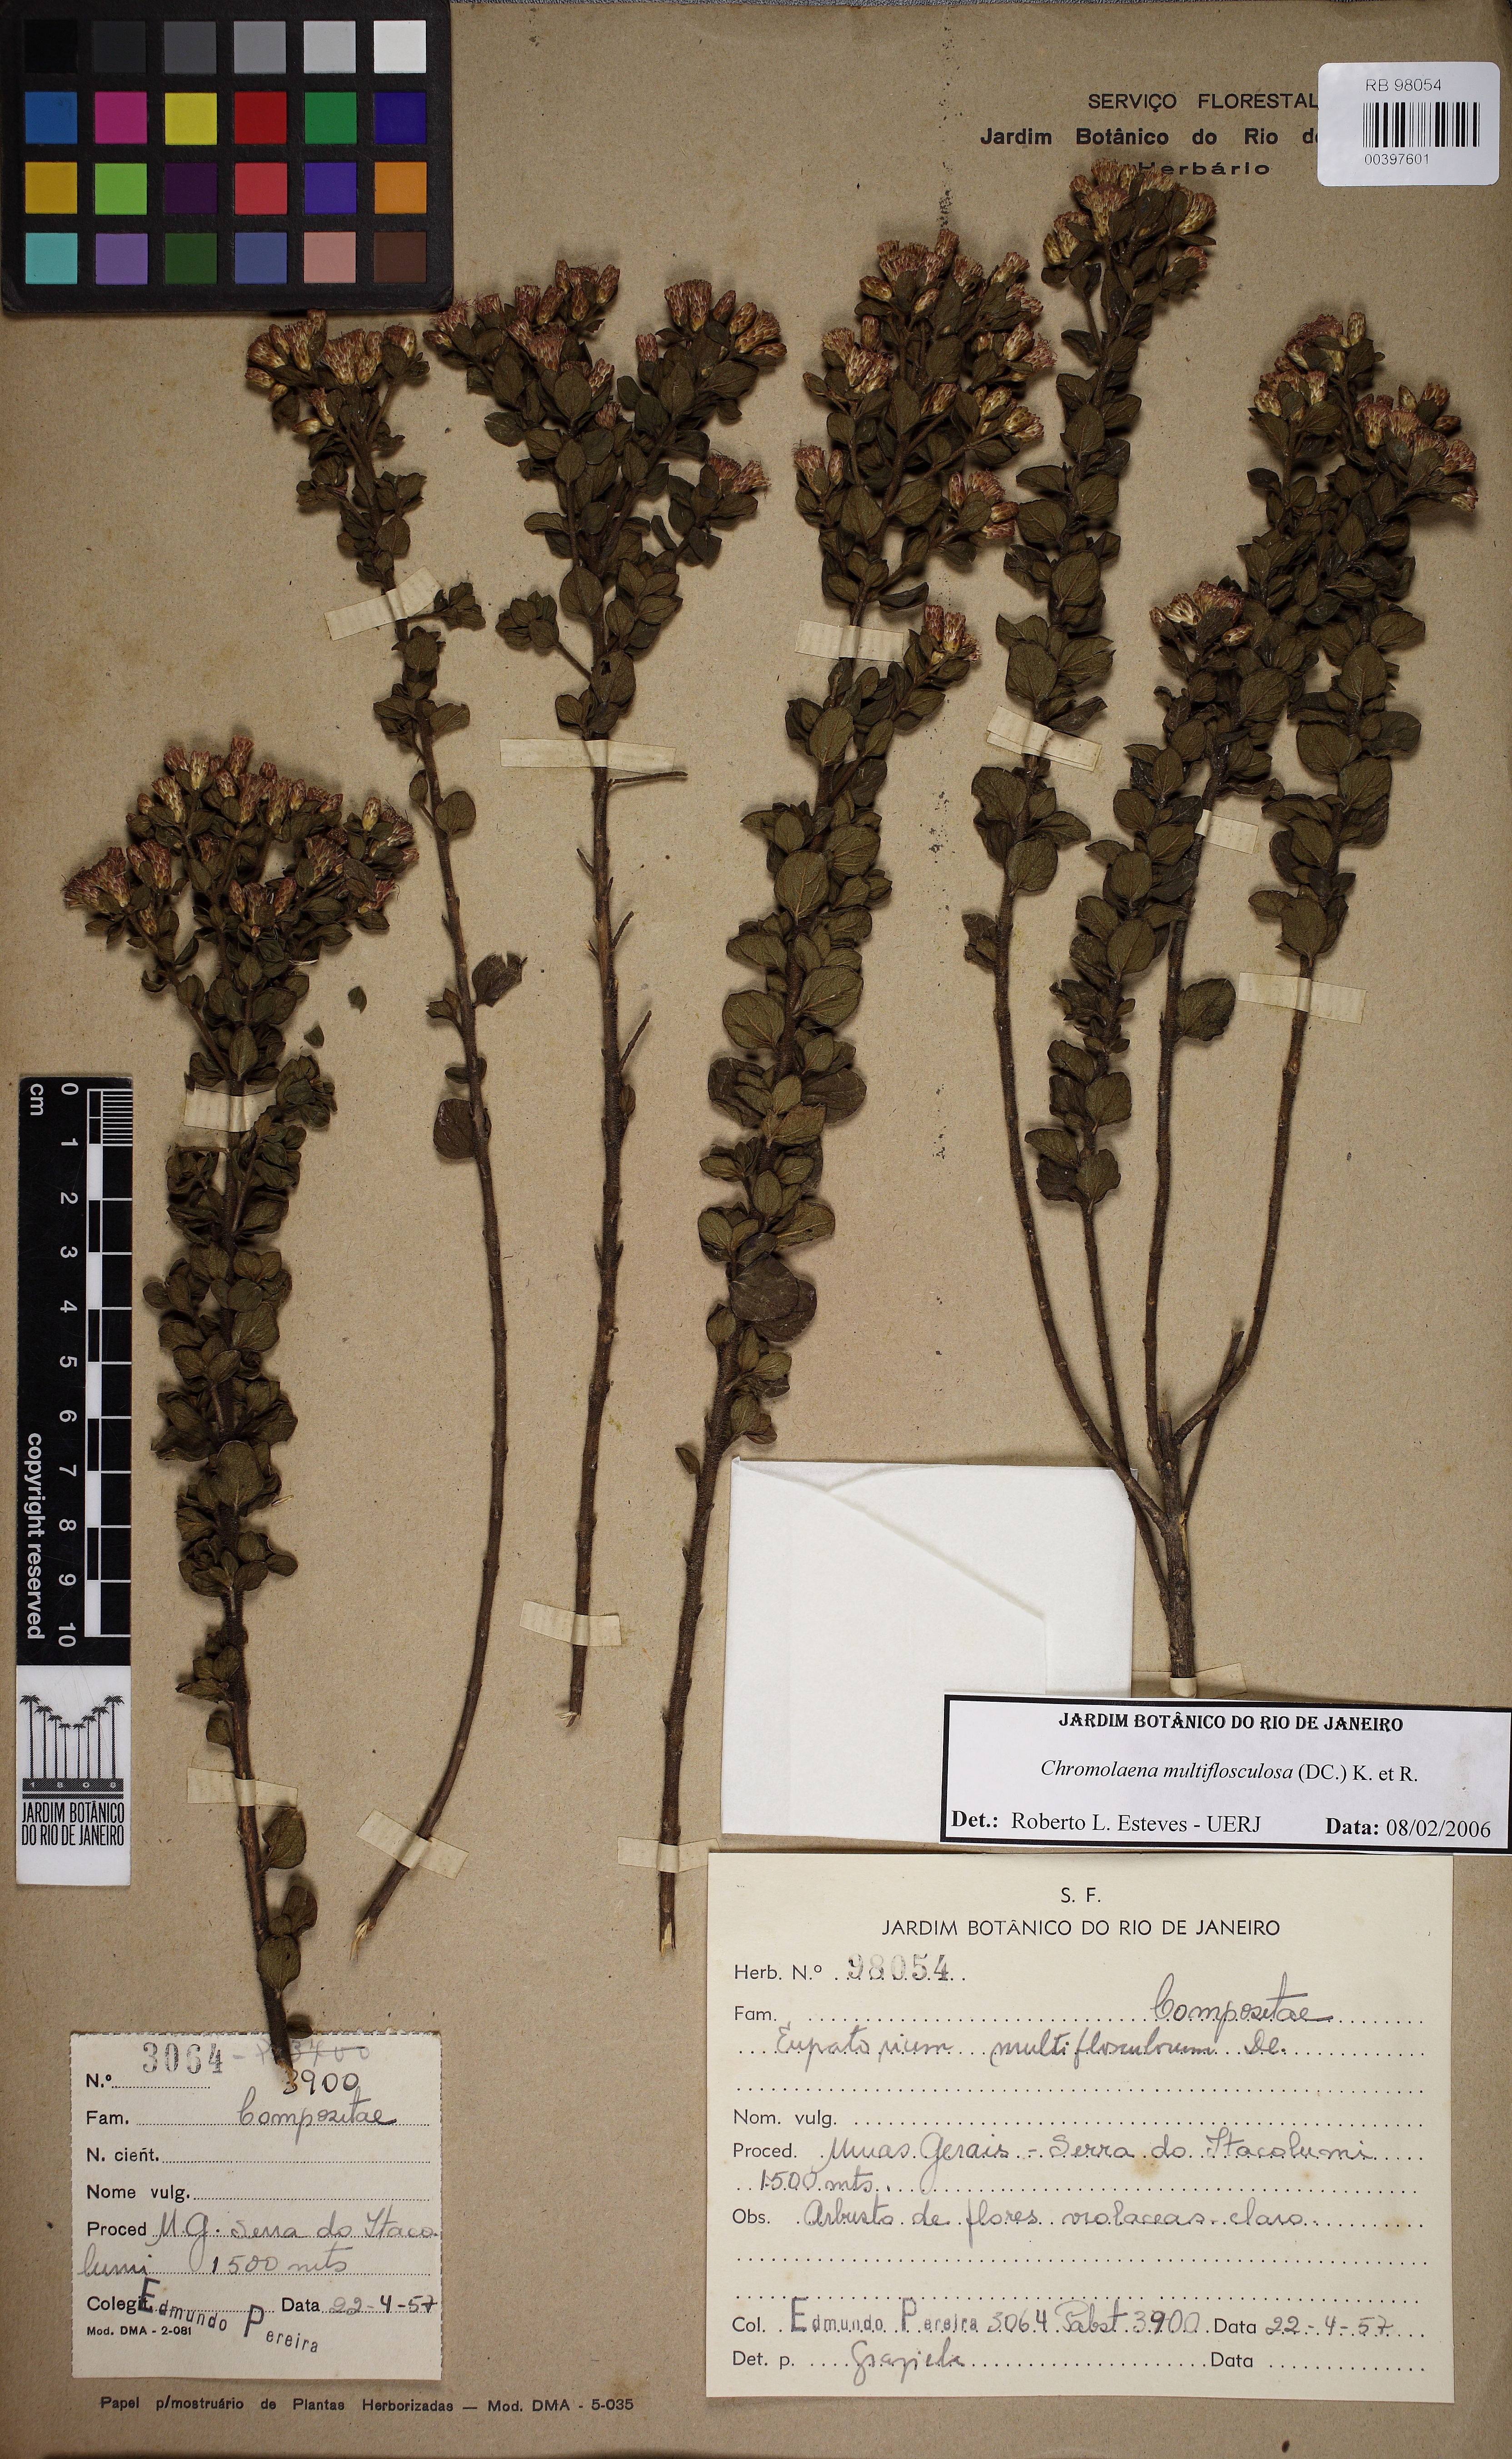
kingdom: Plantae
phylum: Tracheophyta
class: Magnoliopsida
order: Asterales
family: Asteraceae
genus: Chromolaena
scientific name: Chromolaena multiflosculosa
